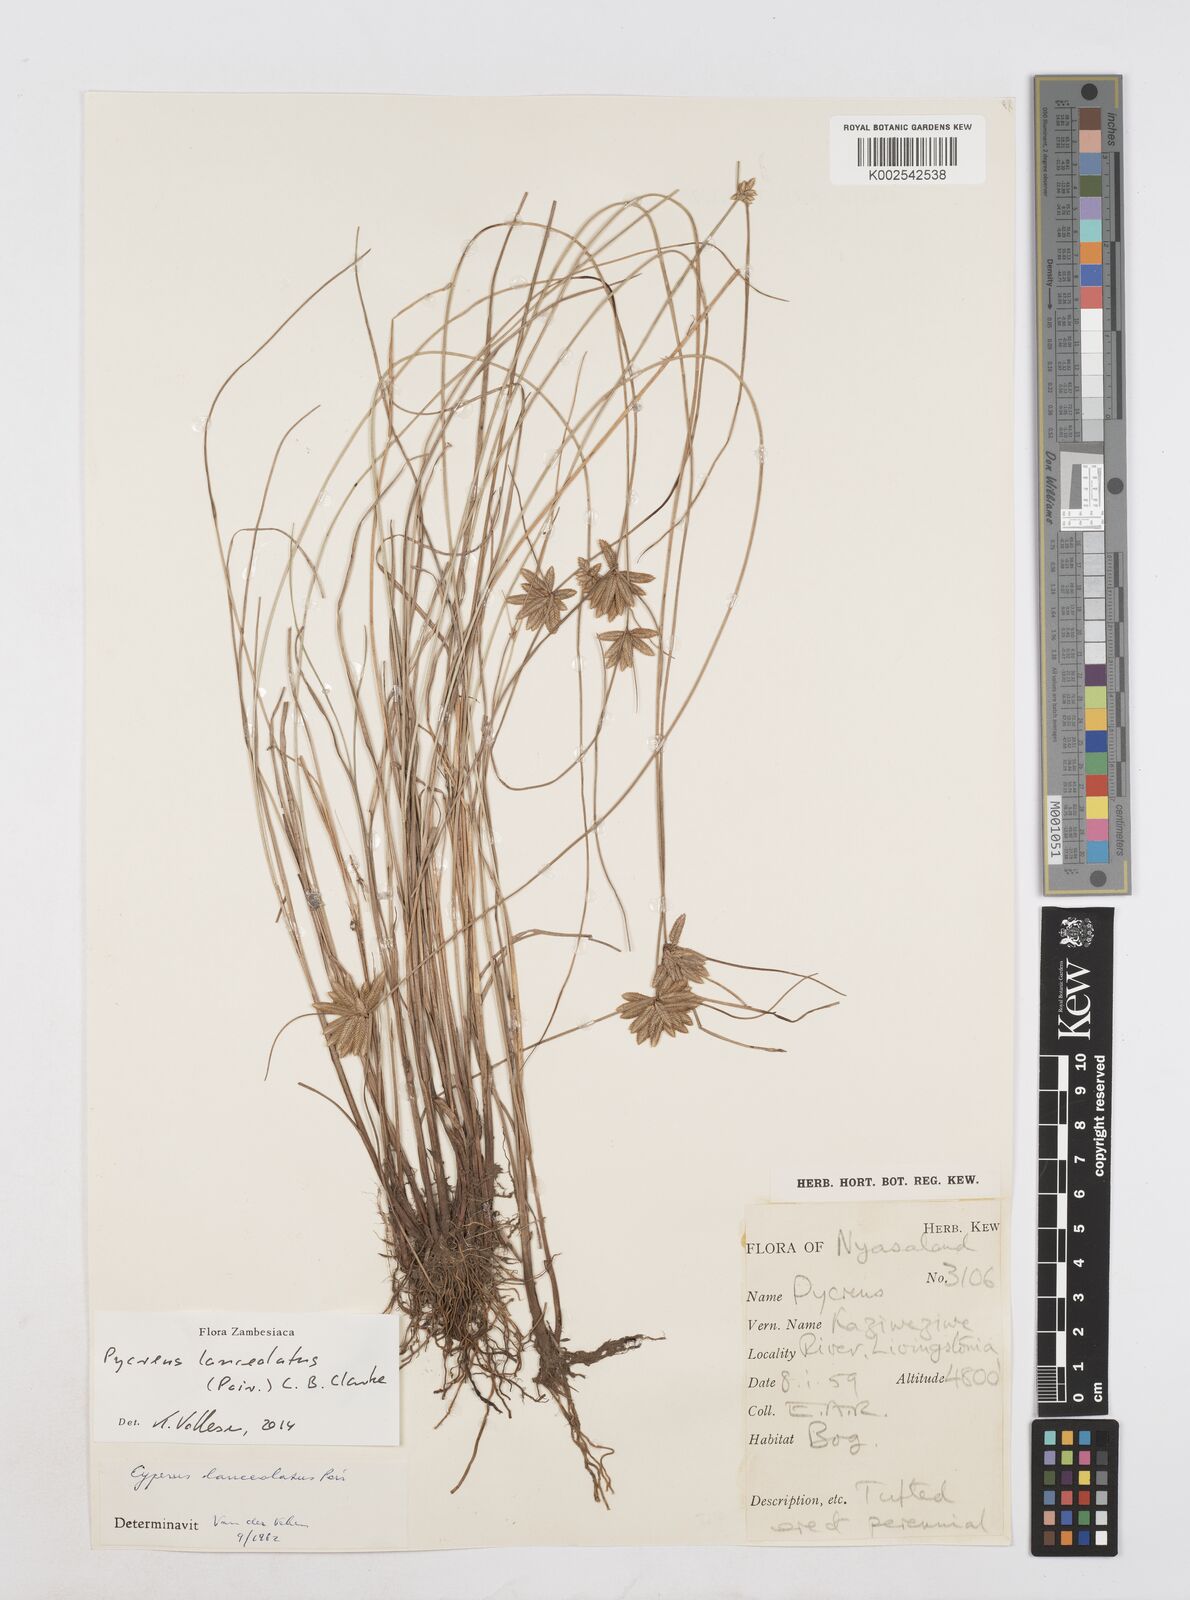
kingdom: Plantae
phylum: Tracheophyta
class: Liliopsida
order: Poales
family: Cyperaceae
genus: Cyperus
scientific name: Cyperus
